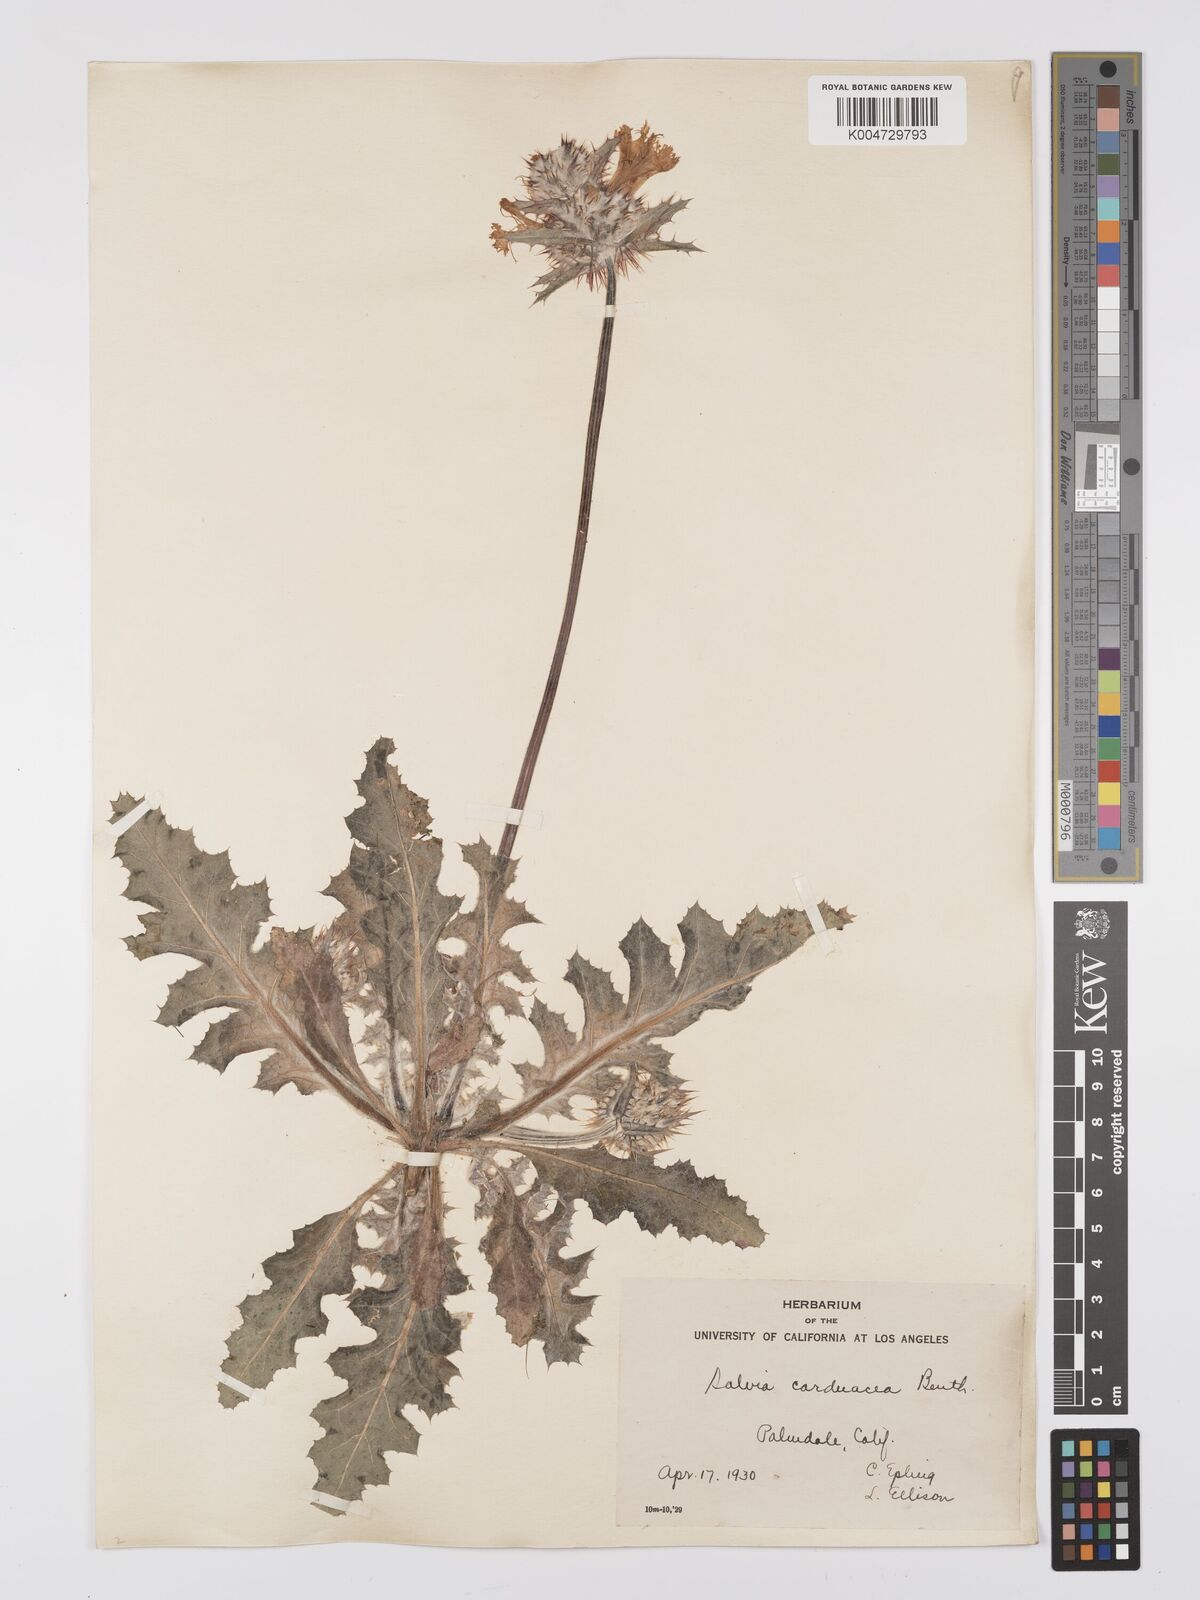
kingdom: Plantae
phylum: Tracheophyta
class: Magnoliopsida
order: Lamiales
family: Lamiaceae
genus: Salvia
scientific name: Salvia carduacea
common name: Thistle sage
